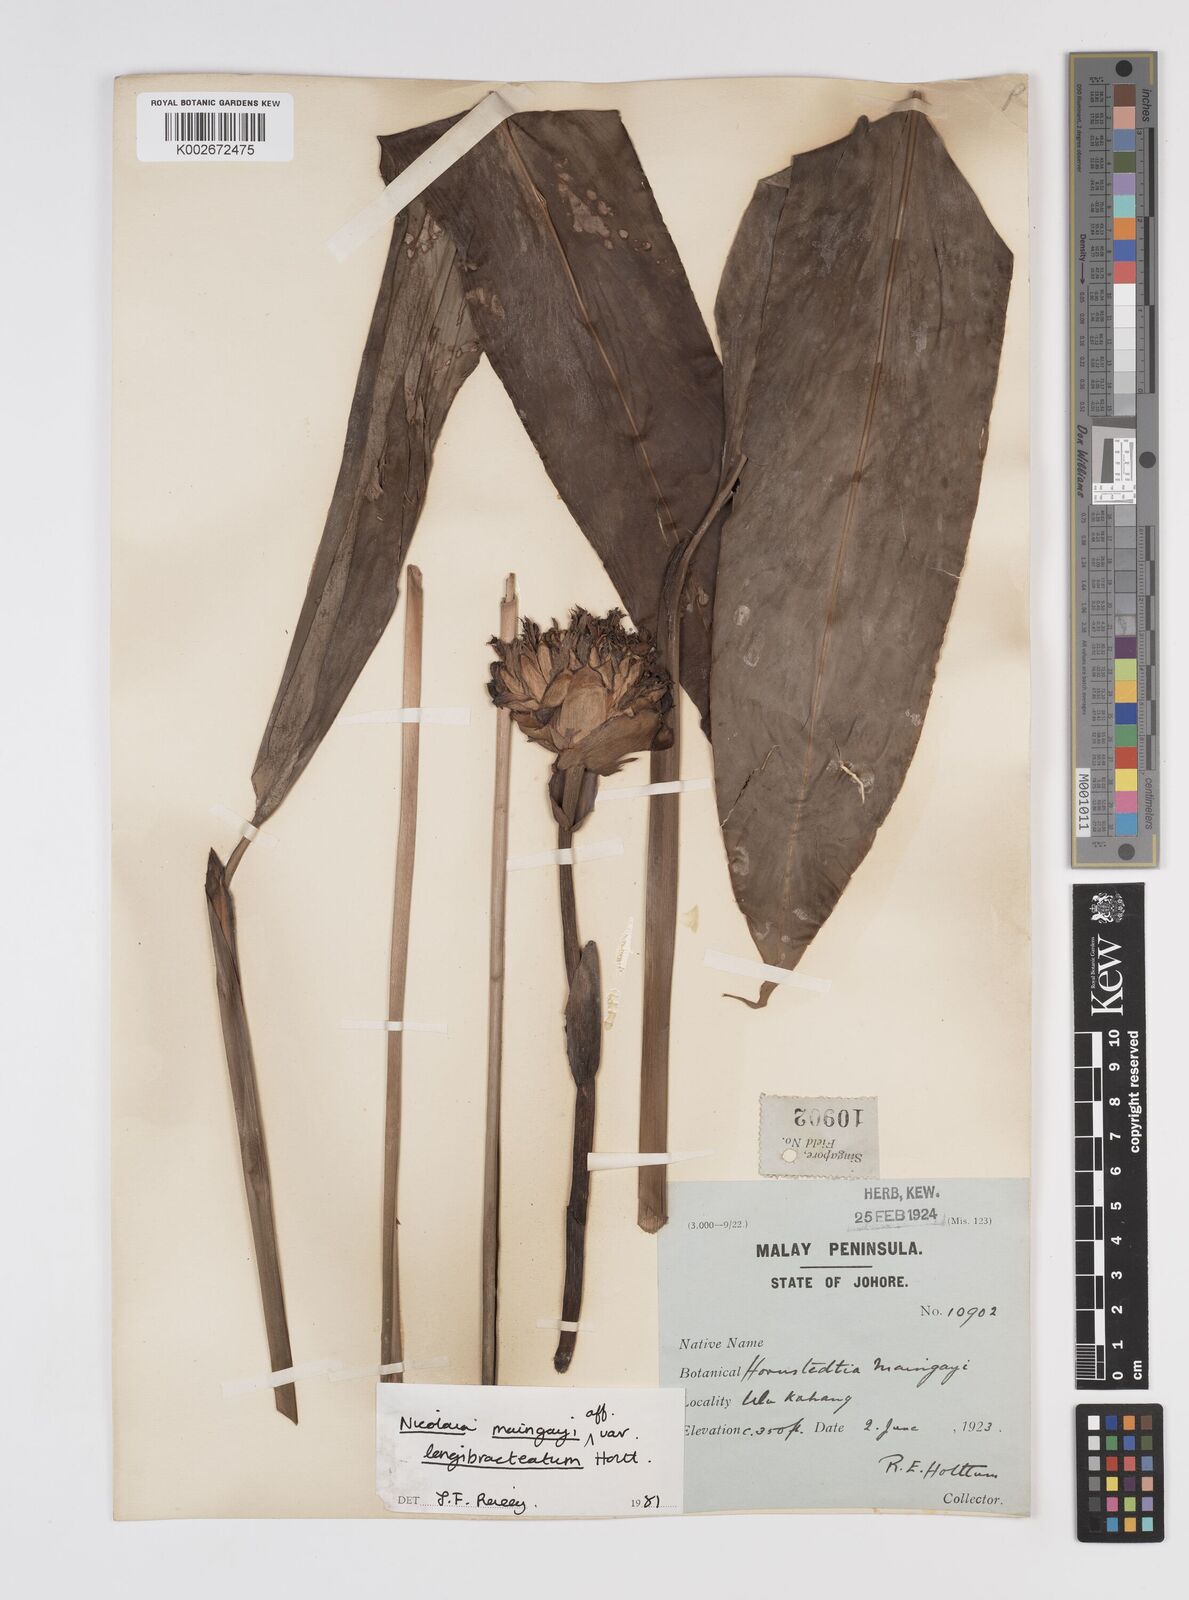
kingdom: Plantae
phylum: Tracheophyta
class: Liliopsida
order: Zingiberales
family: Zingiberaceae
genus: Etlingera
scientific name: Etlingera maingayi
